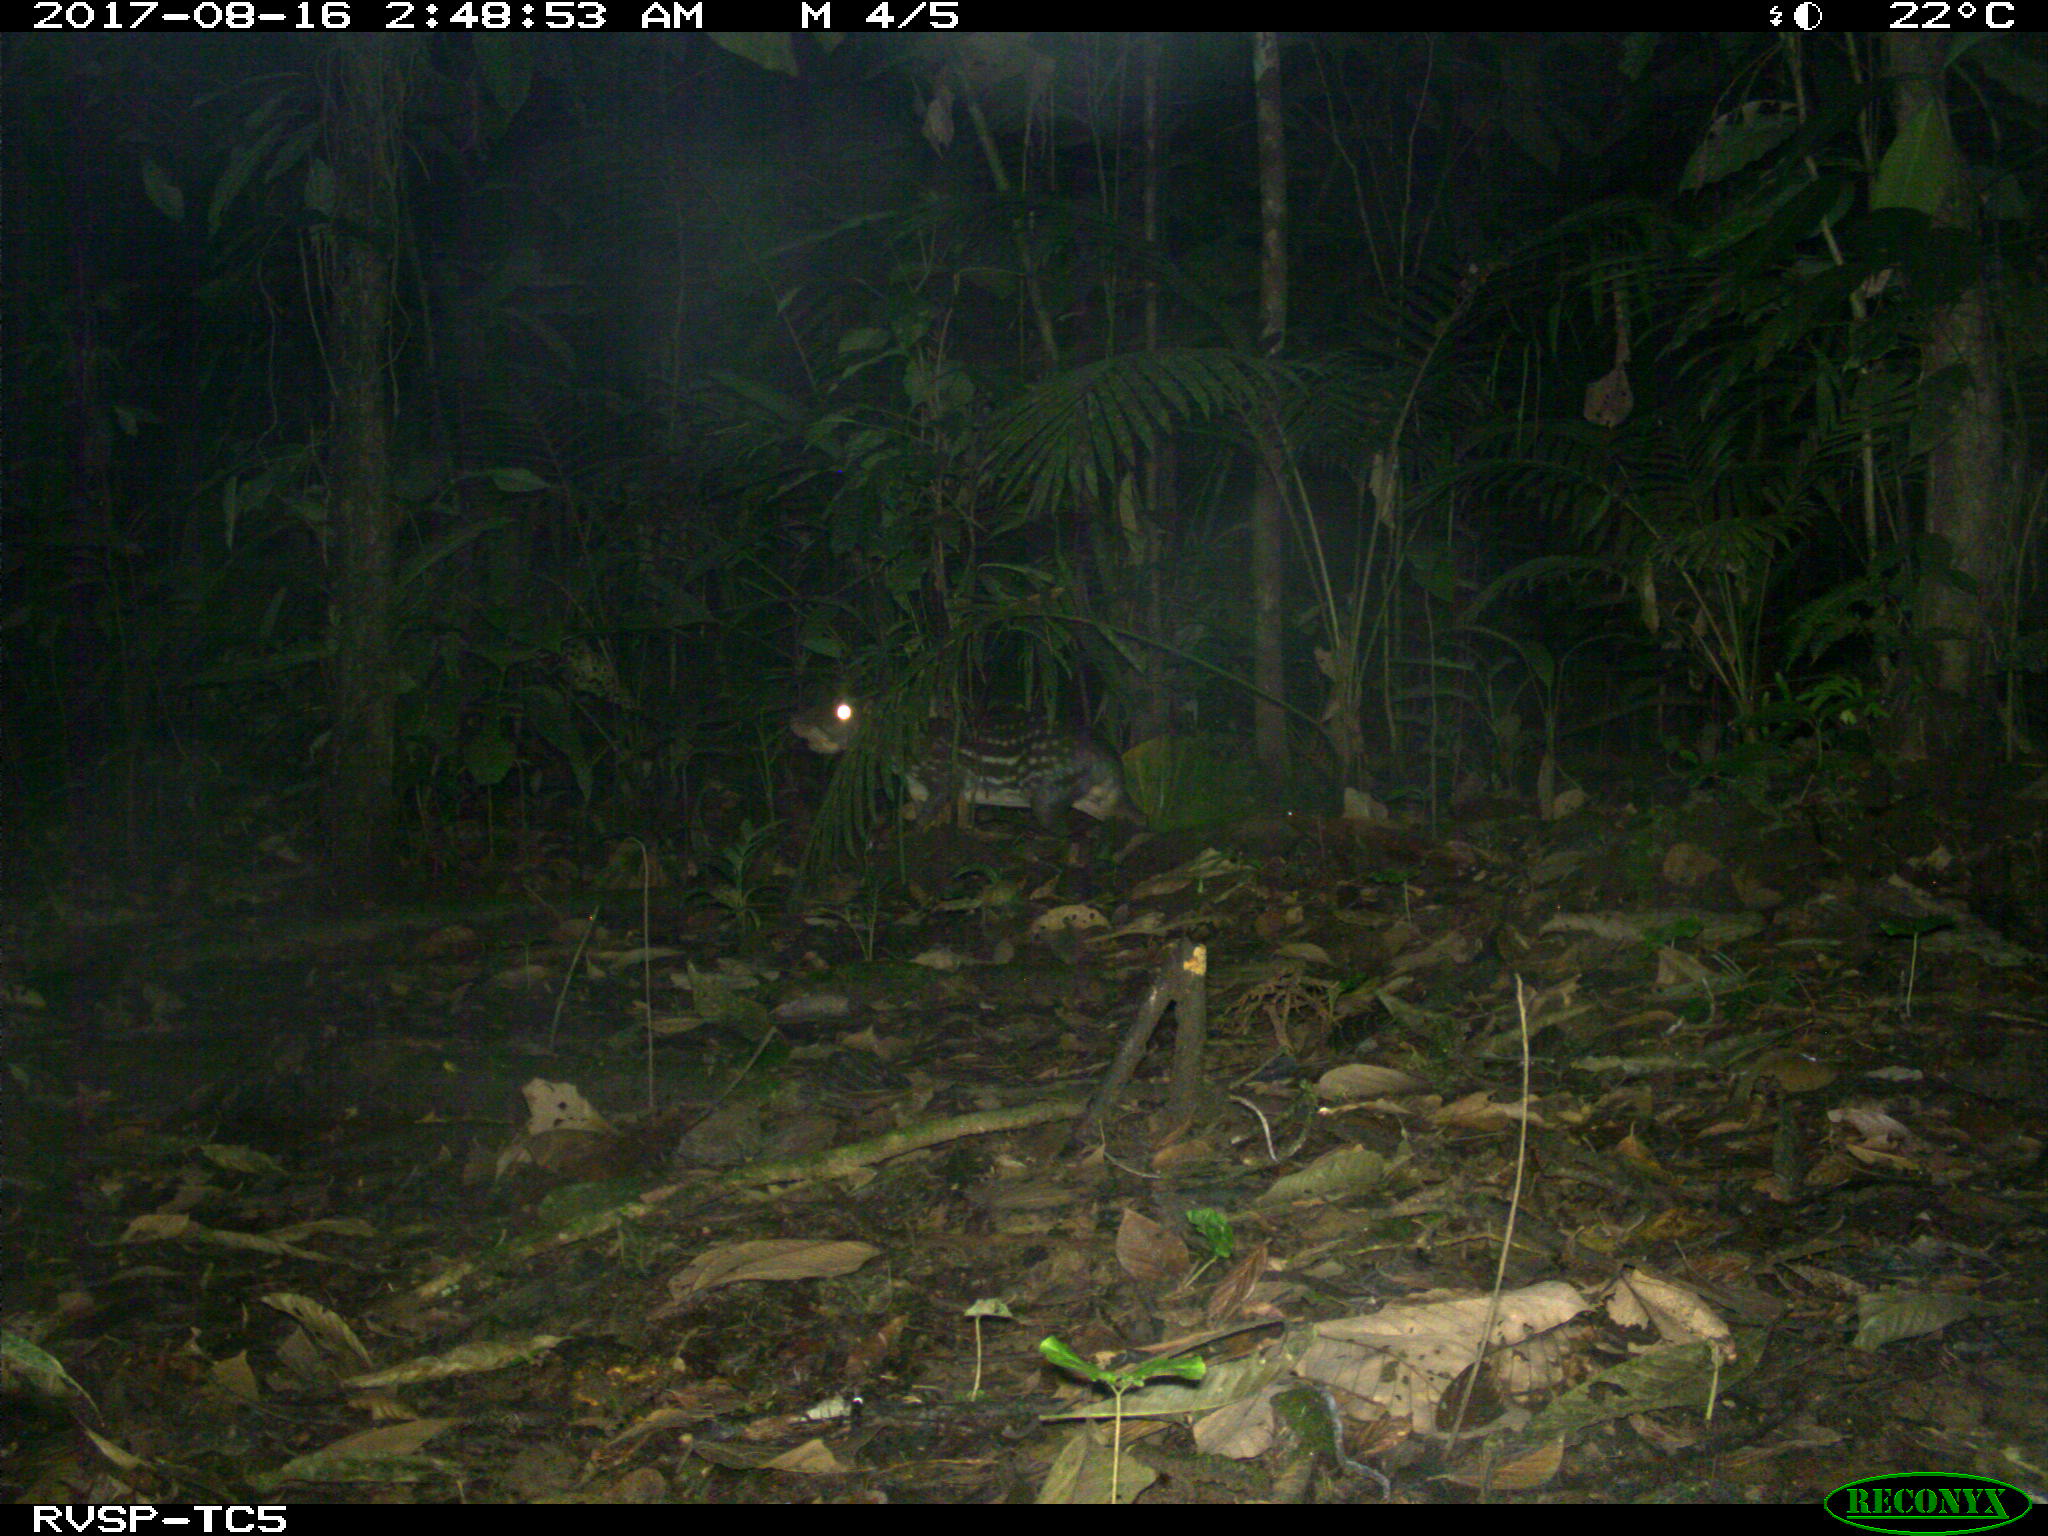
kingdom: Animalia
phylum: Chordata
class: Mammalia
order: Rodentia
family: Cuniculidae
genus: Cuniculus
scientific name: Cuniculus paca
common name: Lowland paca
